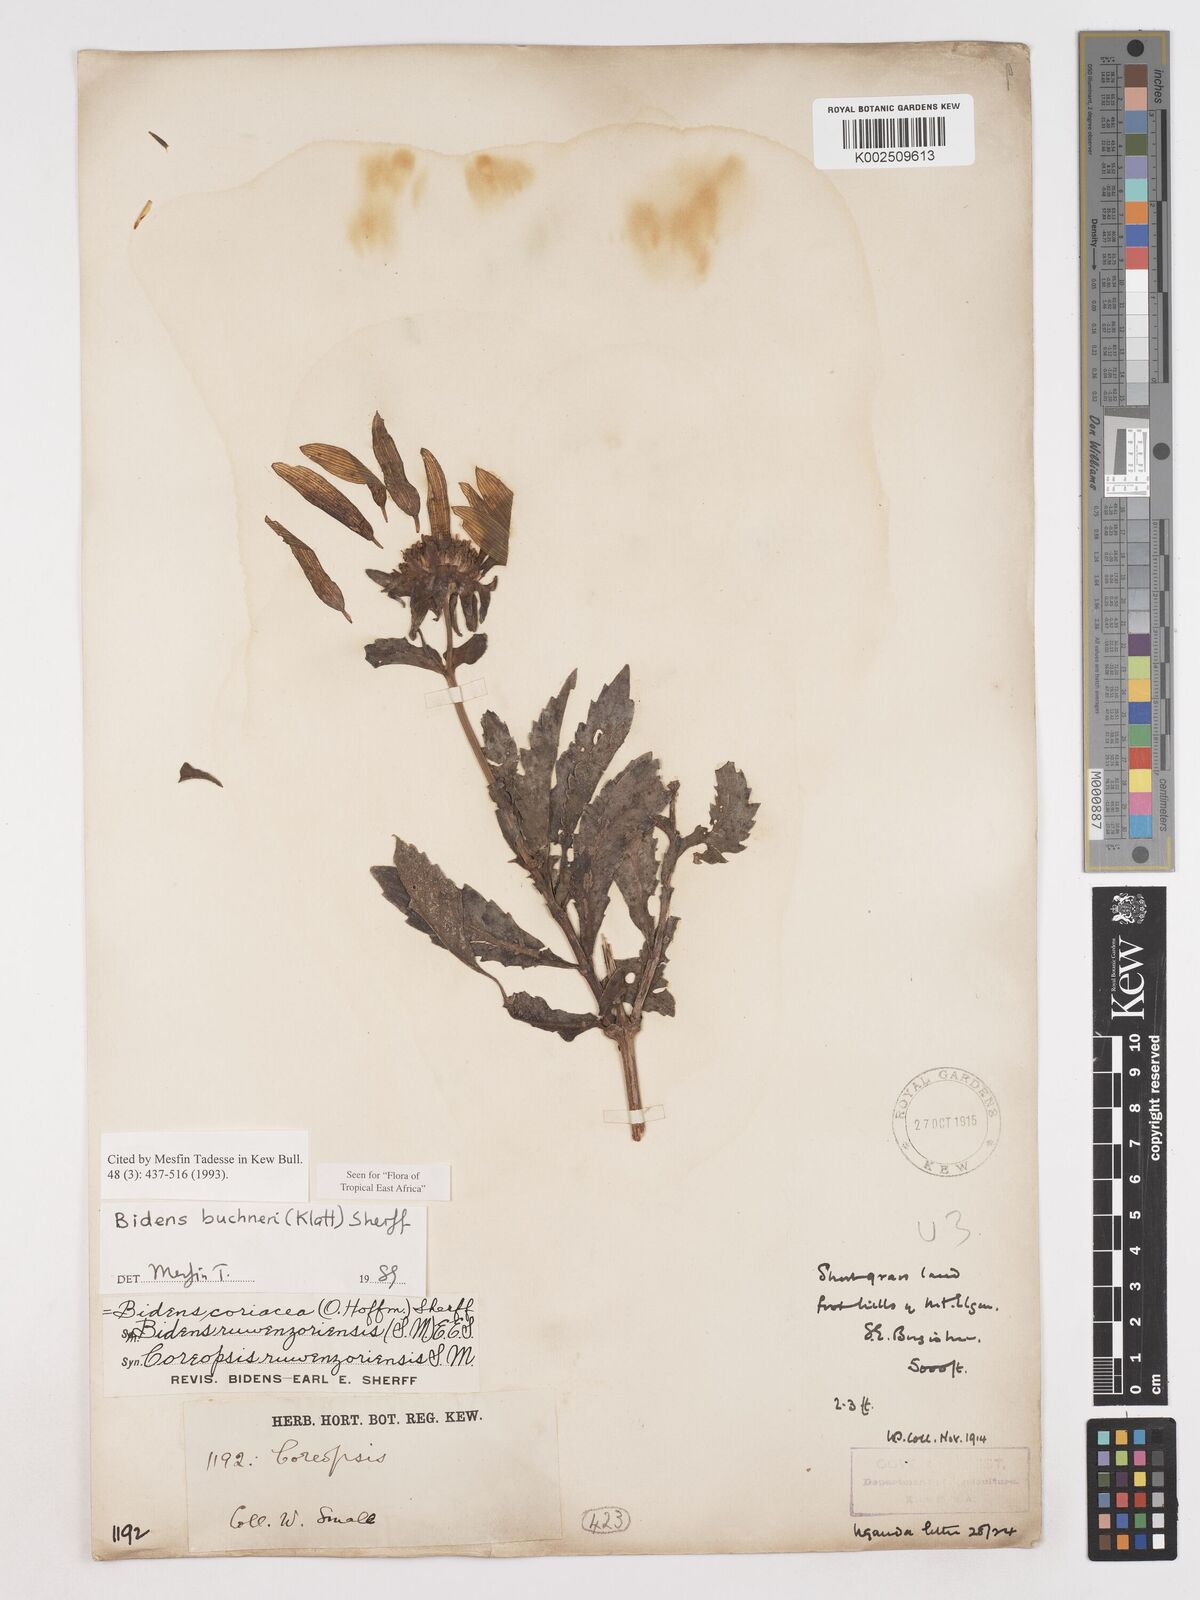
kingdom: Plantae
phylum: Tracheophyta
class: Magnoliopsida
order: Asterales
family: Asteraceae
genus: Bidens
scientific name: Bidens buchneri
